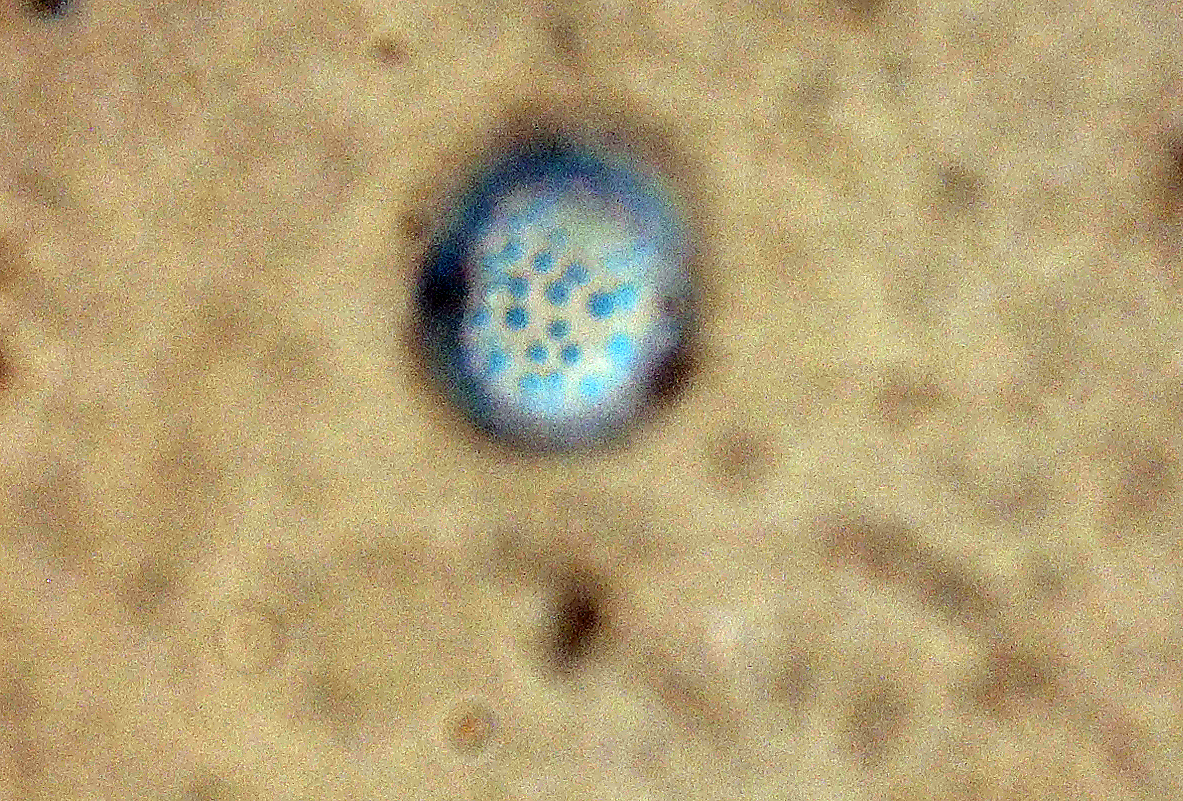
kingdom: Fungi
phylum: Ascomycota
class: Pezizomycetes
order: Pezizales
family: Pyronemataceae
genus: Octospora
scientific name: Octospora affinis
